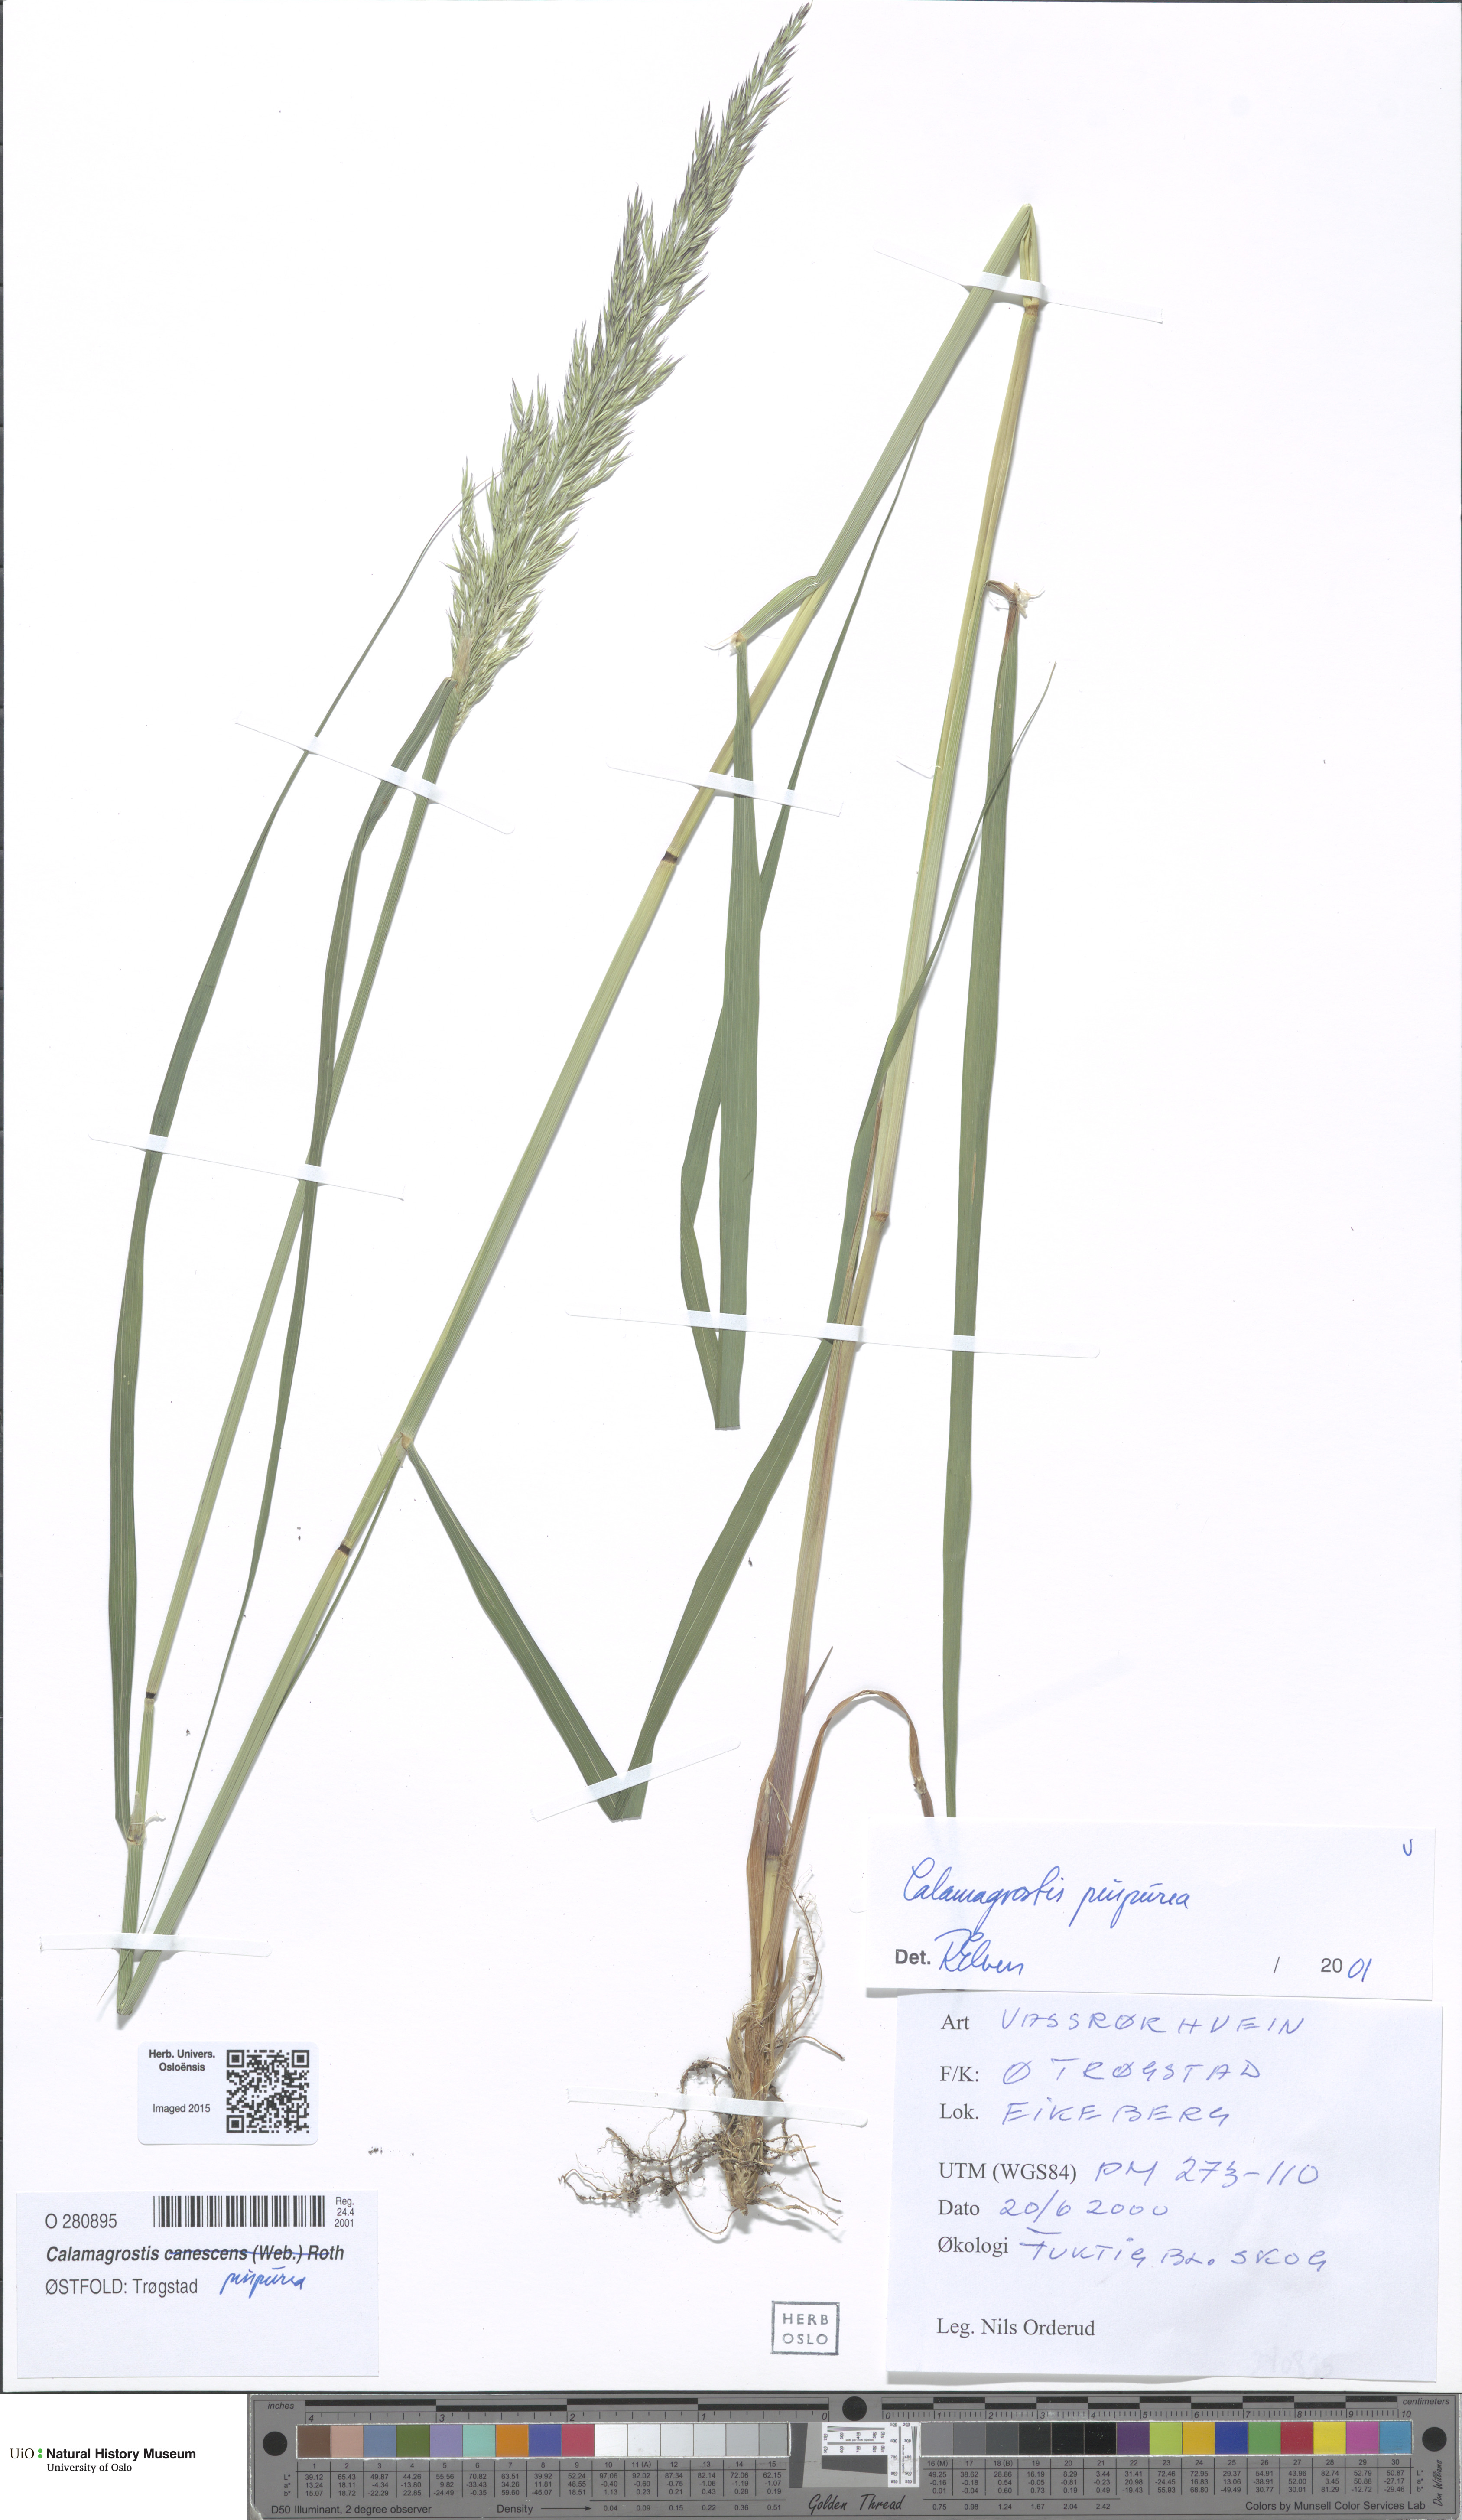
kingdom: Plantae
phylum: Tracheophyta
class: Liliopsida
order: Poales
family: Poaceae
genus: Calamagrostis
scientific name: Calamagrostis purpurea
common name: Scandinavian small-reed
